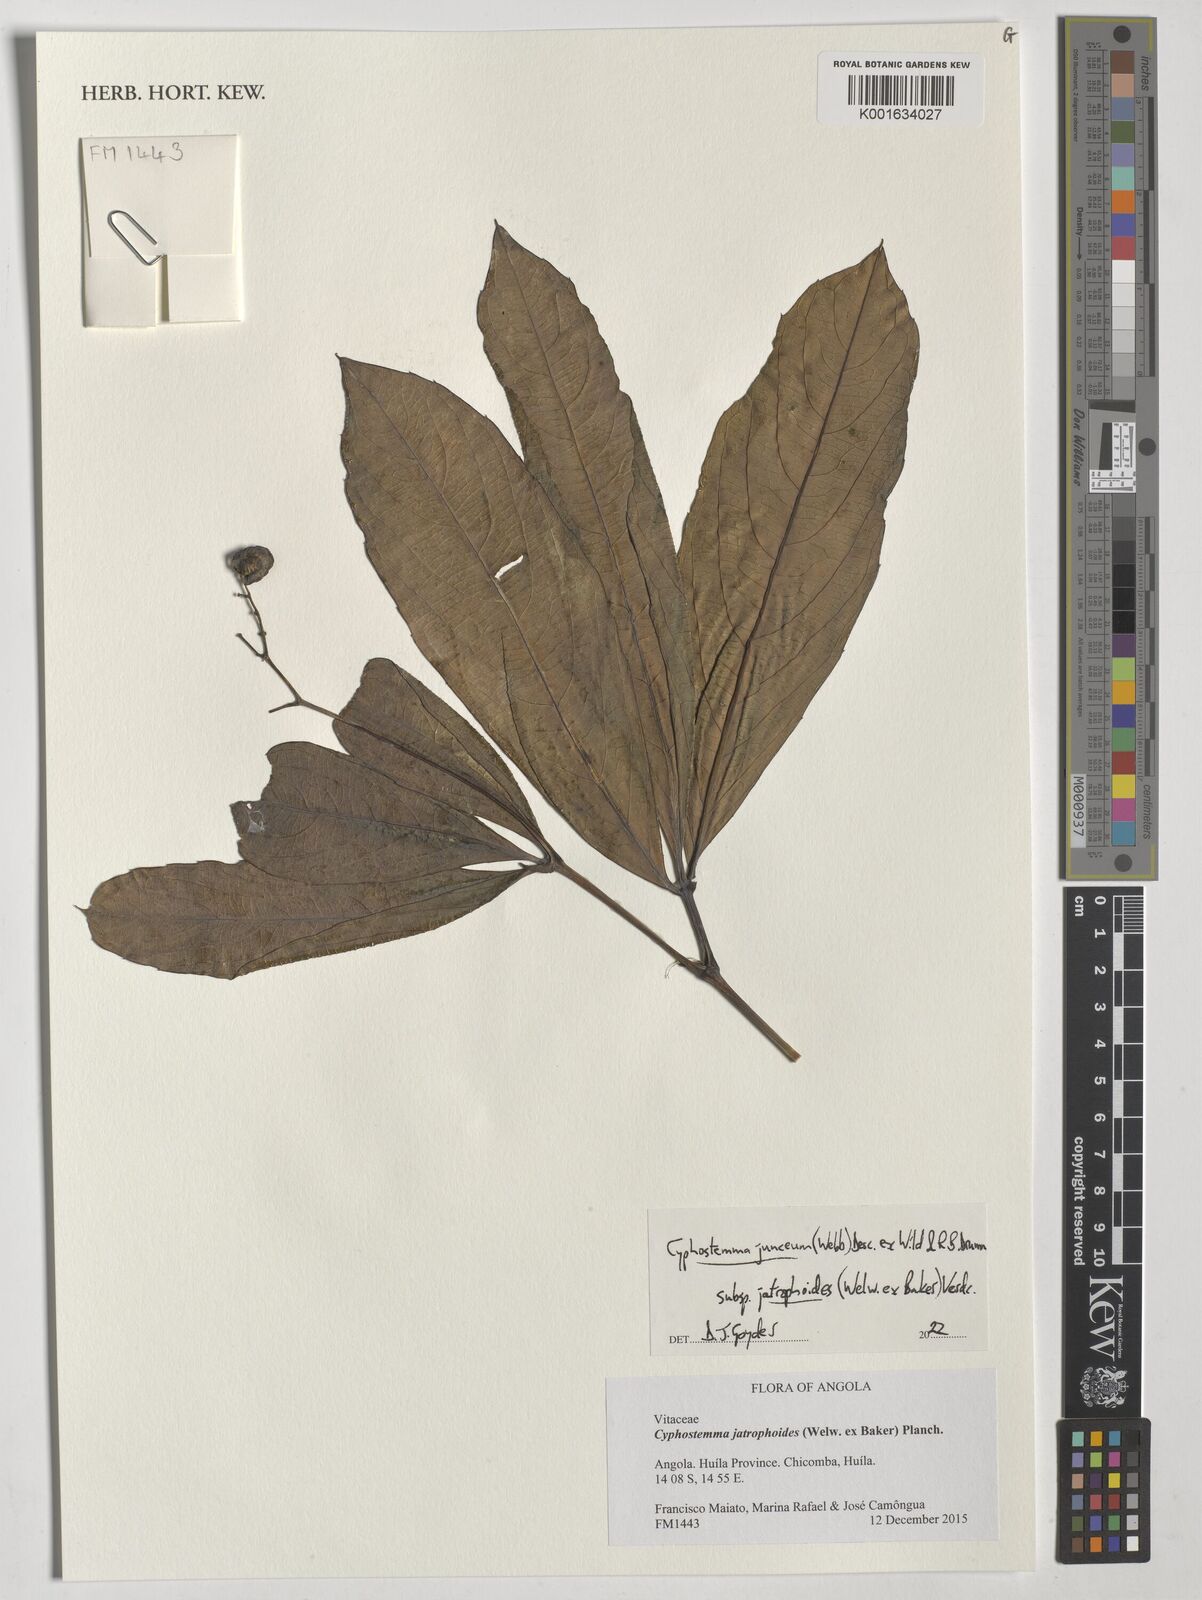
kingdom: Plantae
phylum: Tracheophyta
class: Magnoliopsida
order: Vitales
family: Vitaceae
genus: Cyphostemma
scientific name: Cyphostemma junceum
